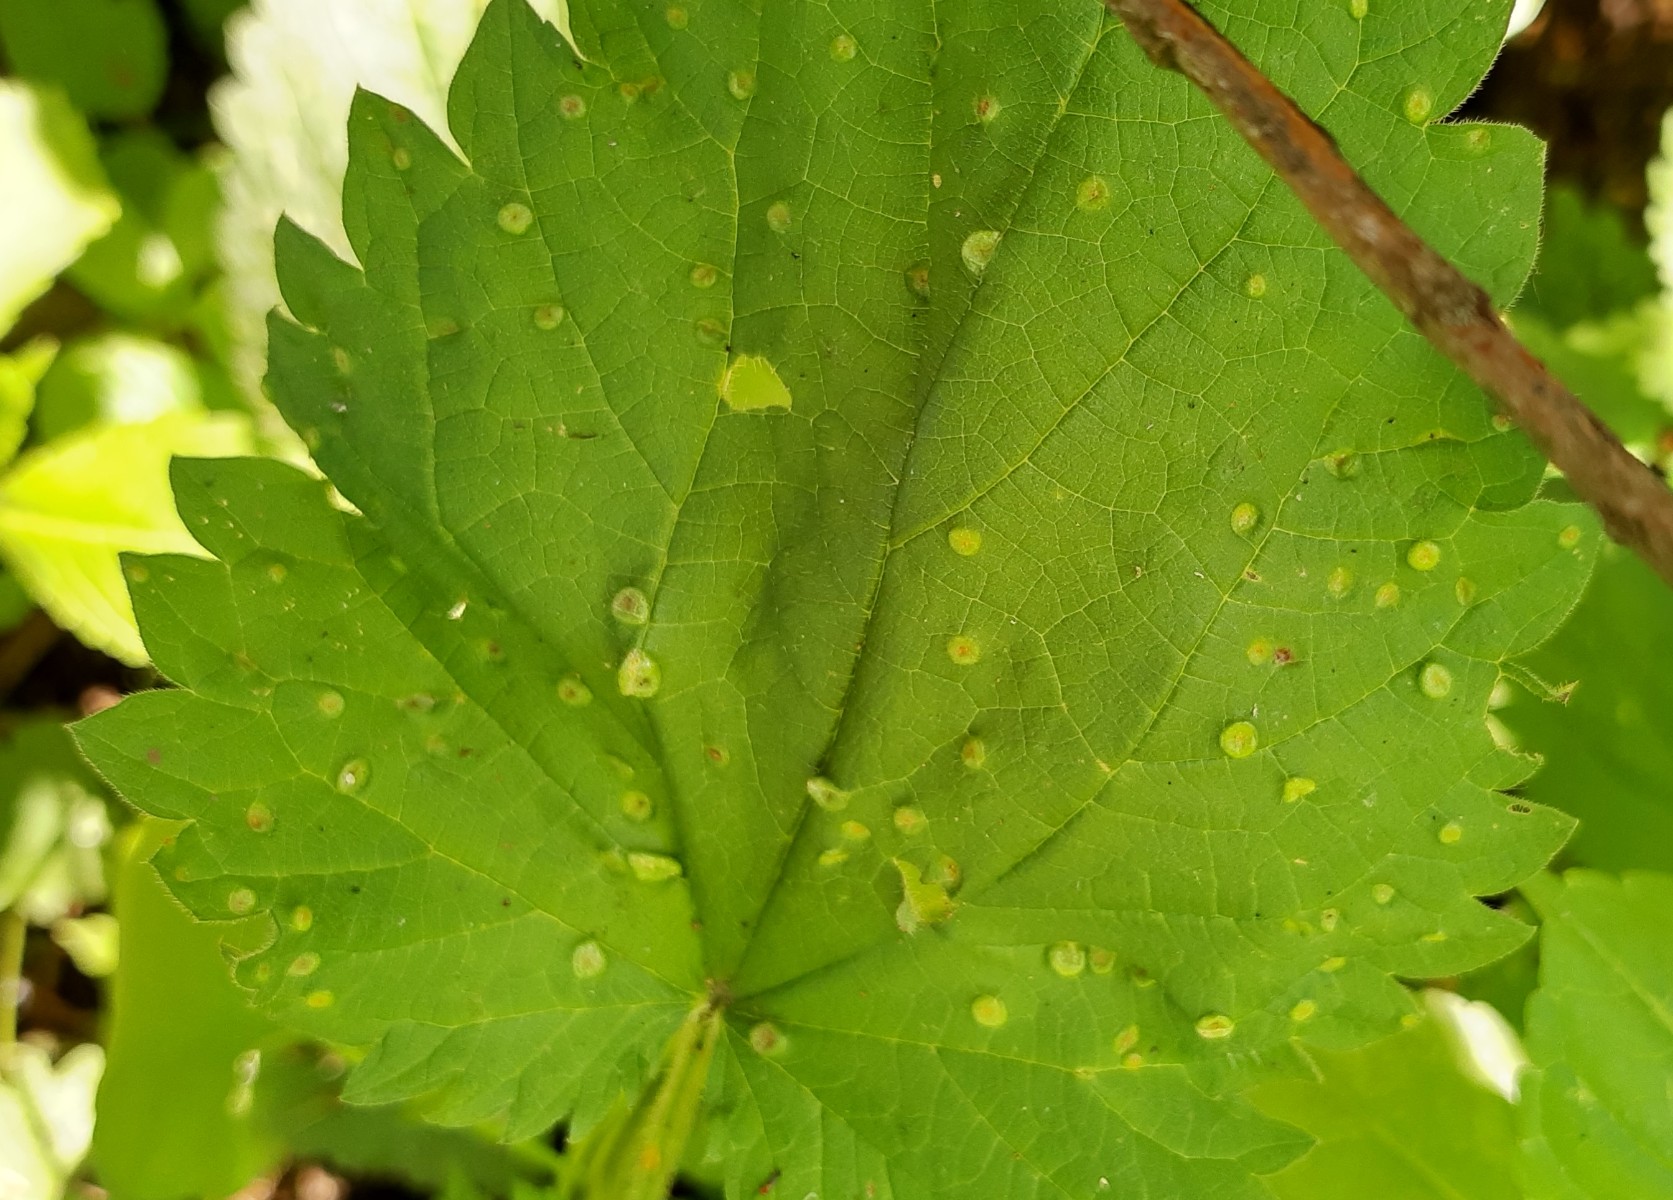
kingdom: Fungi
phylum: Basidiomycota
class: Pucciniomycetes
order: Pucciniales
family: Pucciniaceae
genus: Puccinia
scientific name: Puccinia urticata
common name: nældegalle-tvecellerust
